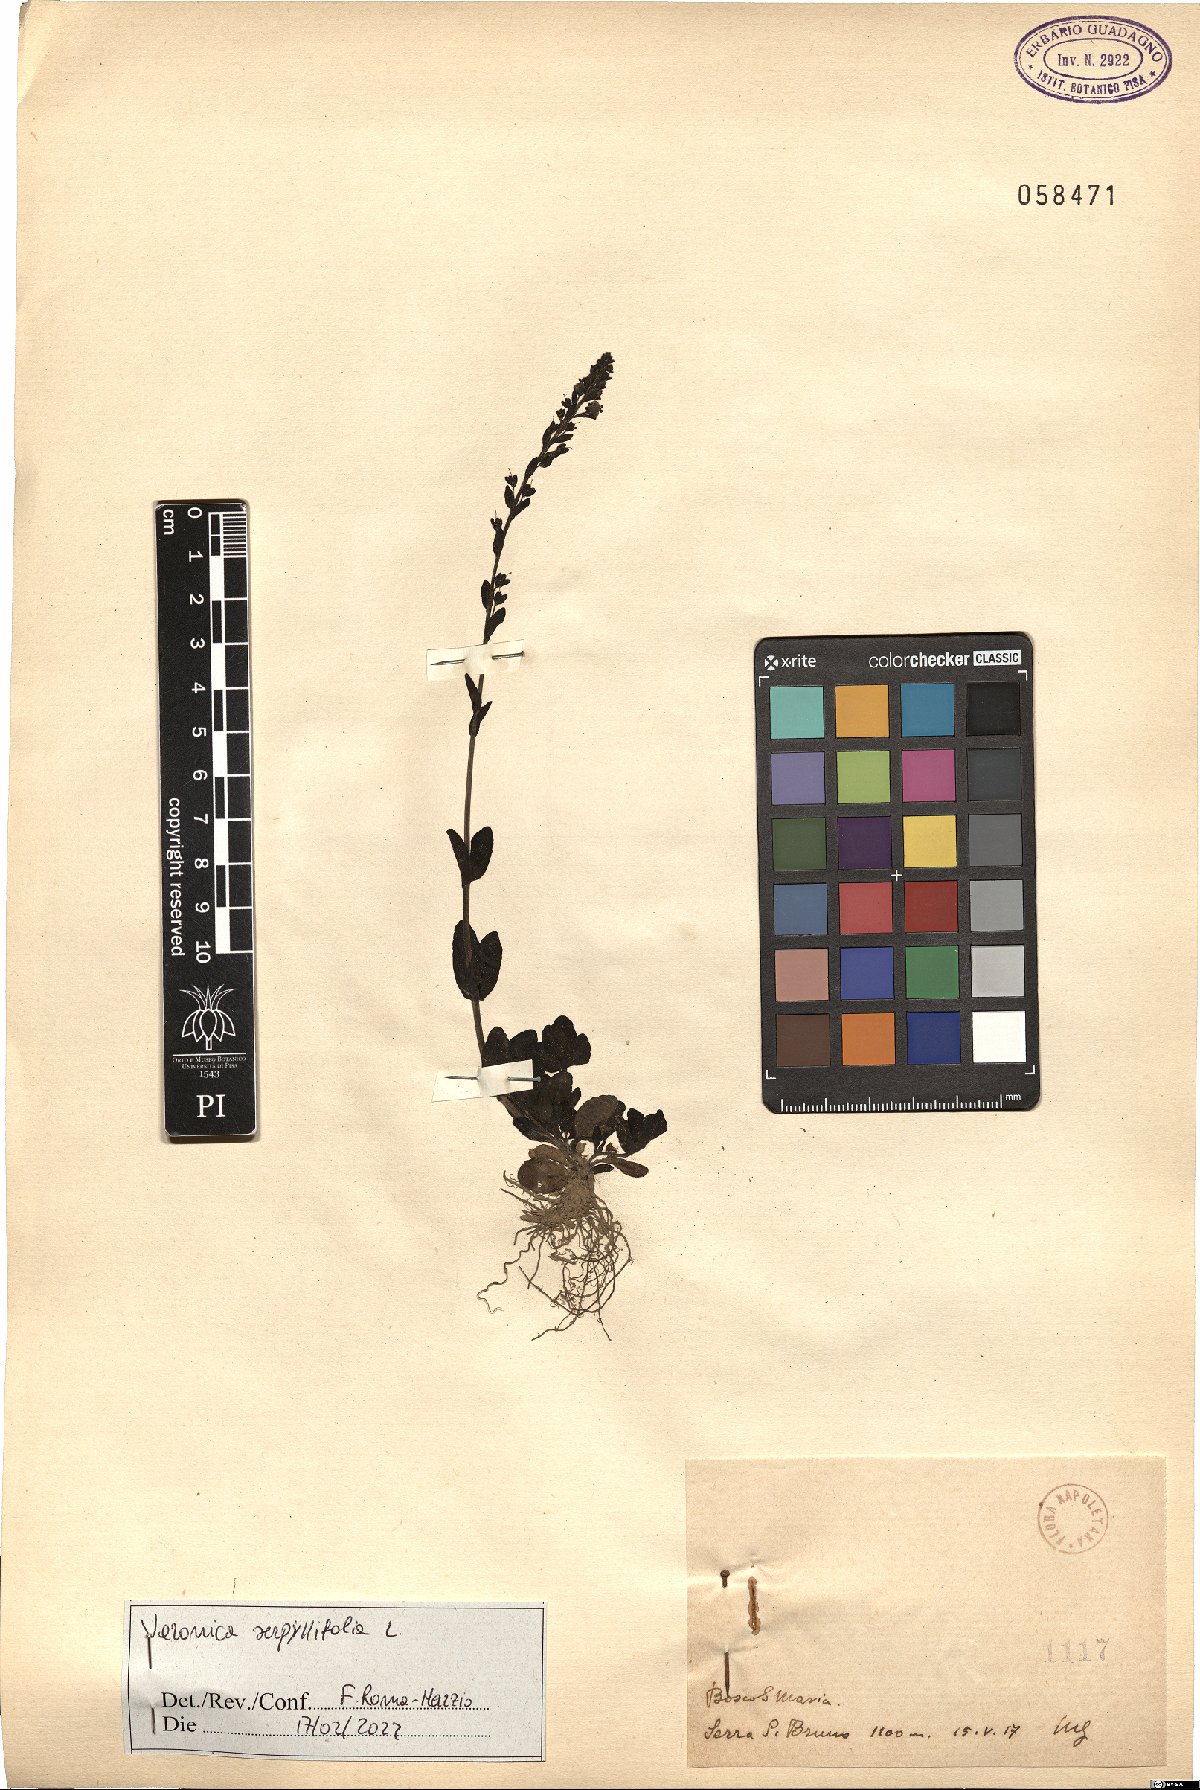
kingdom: Plantae
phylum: Tracheophyta
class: Magnoliopsida
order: Lamiales
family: Plantaginaceae
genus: Veronica
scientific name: Veronica serpyllifolia
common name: Thyme-leaved speedwell
